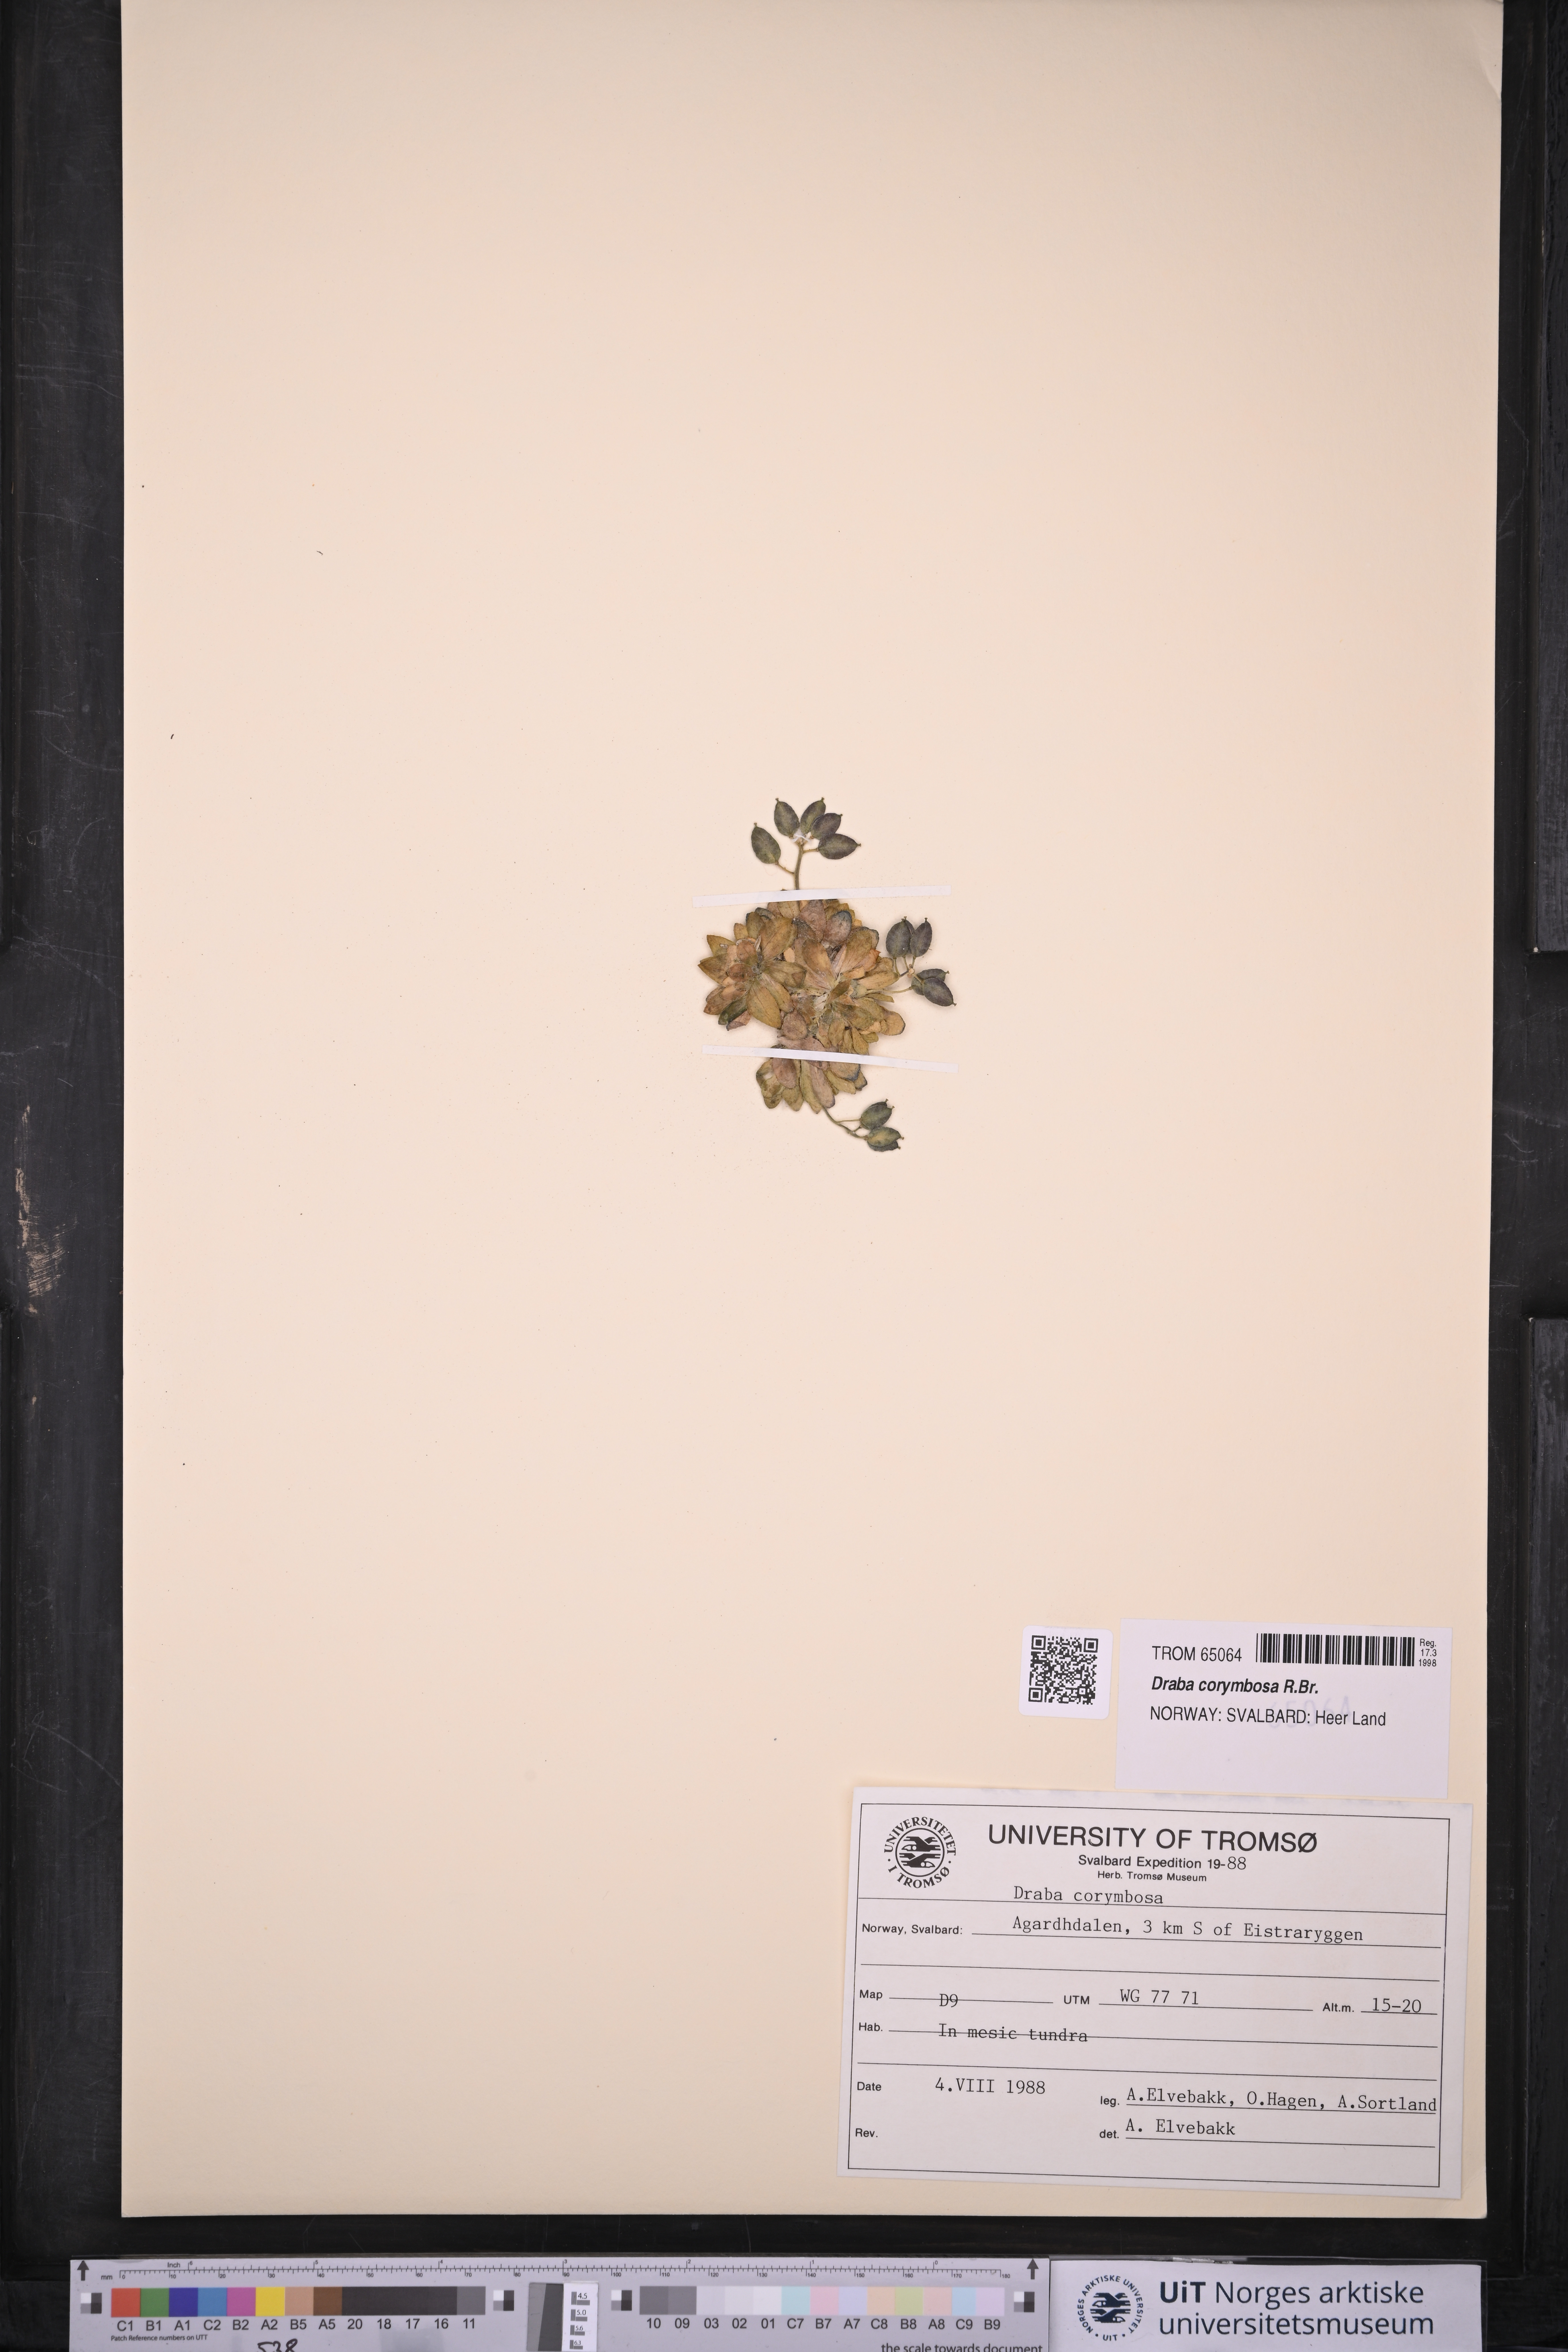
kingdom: Plantae
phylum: Tracheophyta
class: Magnoliopsida
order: Brassicales
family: Brassicaceae
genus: Draba
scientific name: Draba corymbosa
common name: Cushion whitlow-grass
